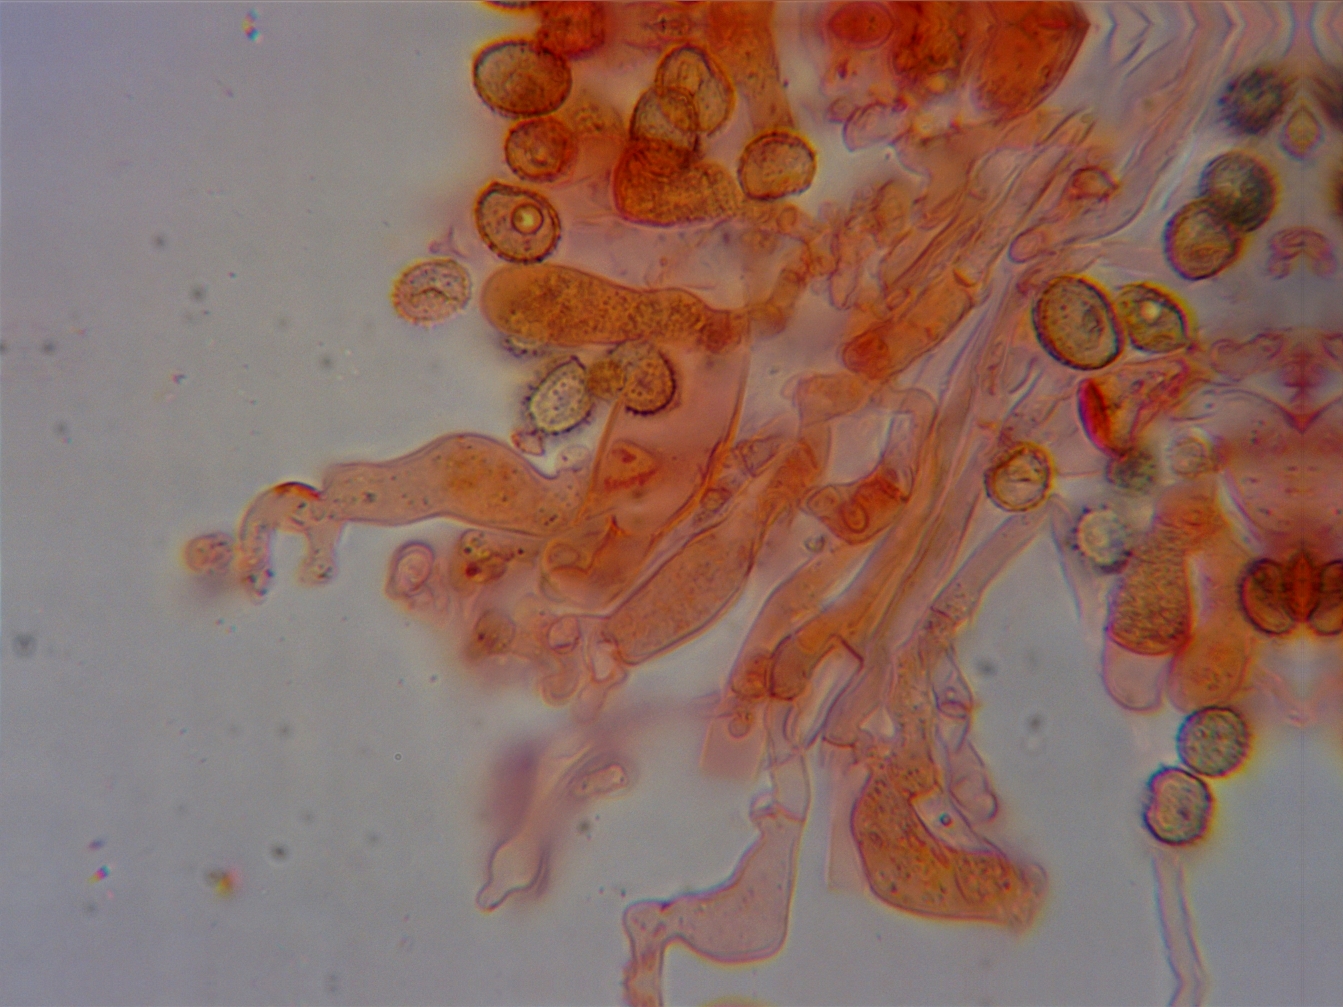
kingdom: Fungi
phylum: Basidiomycota
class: Agaricomycetes
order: Agaricales
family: Crepidotaceae
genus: Crepidotus
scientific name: Crepidotus cesatii
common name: almindelig muslingesvamp
